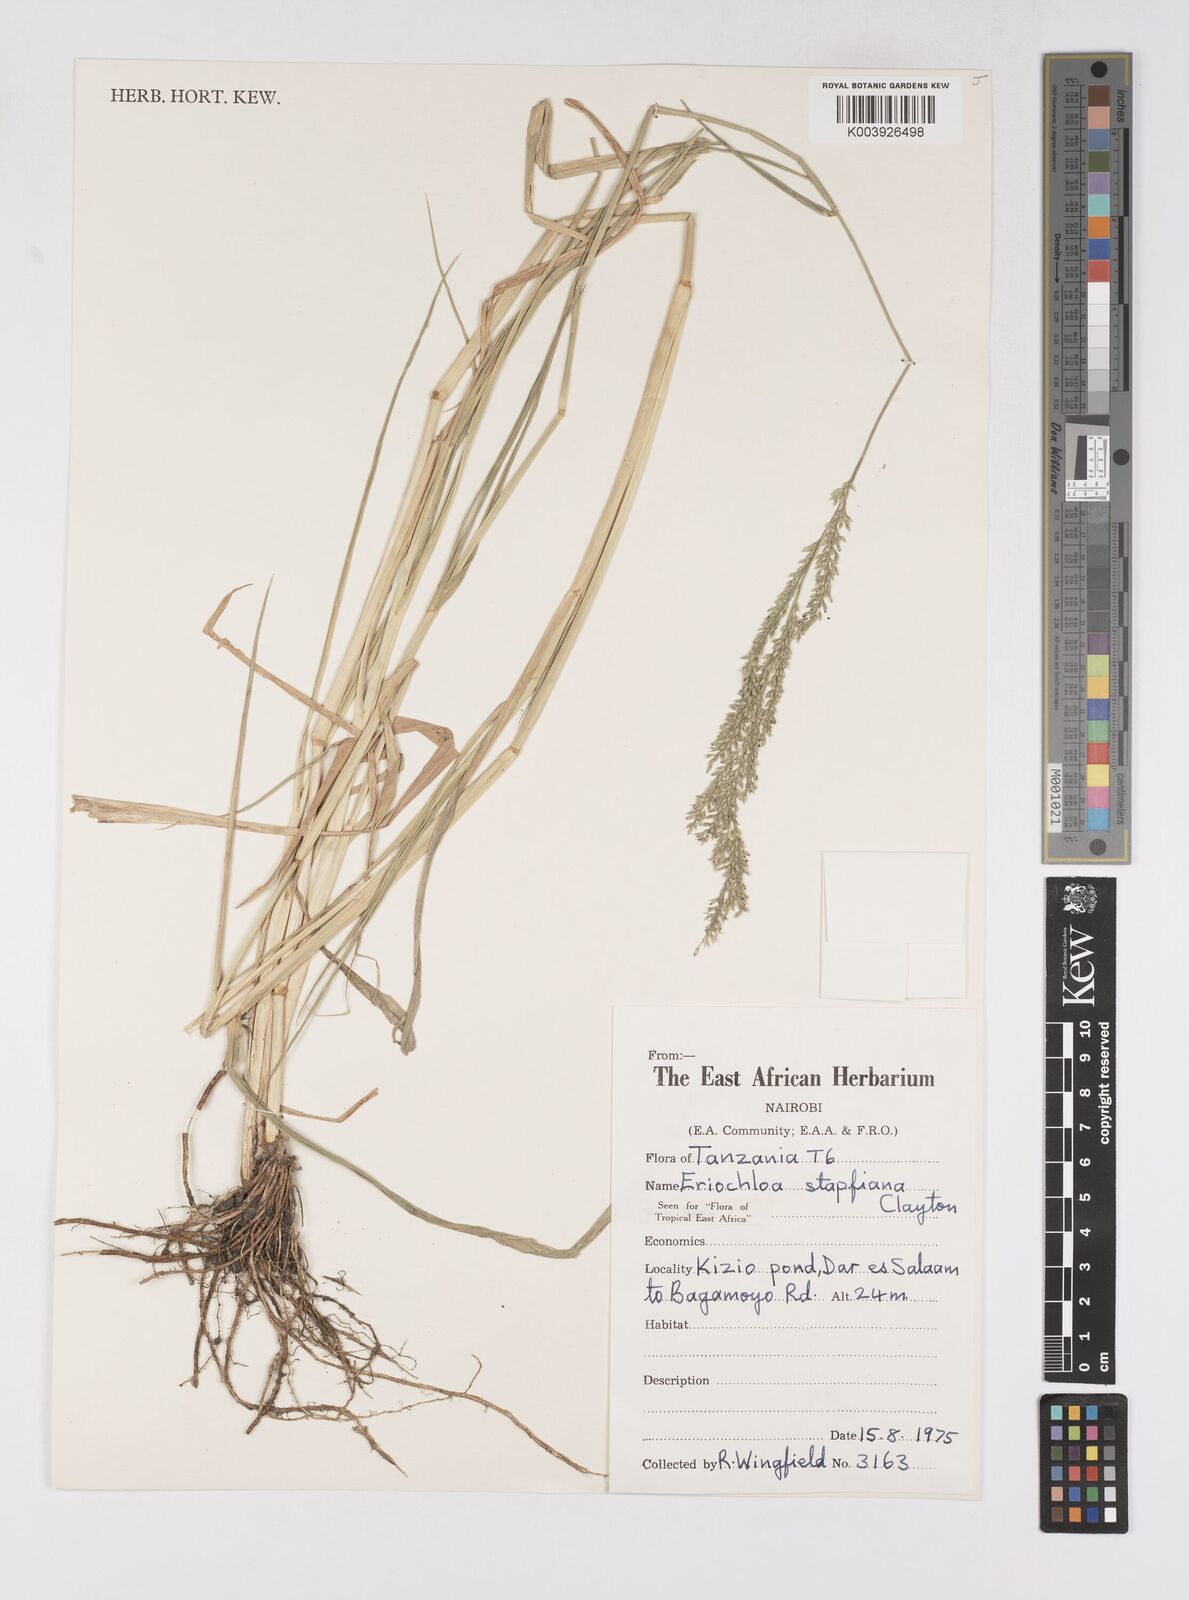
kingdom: Plantae
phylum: Tracheophyta
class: Liliopsida
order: Poales
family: Poaceae
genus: Eriochloa
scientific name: Eriochloa stapfiana
